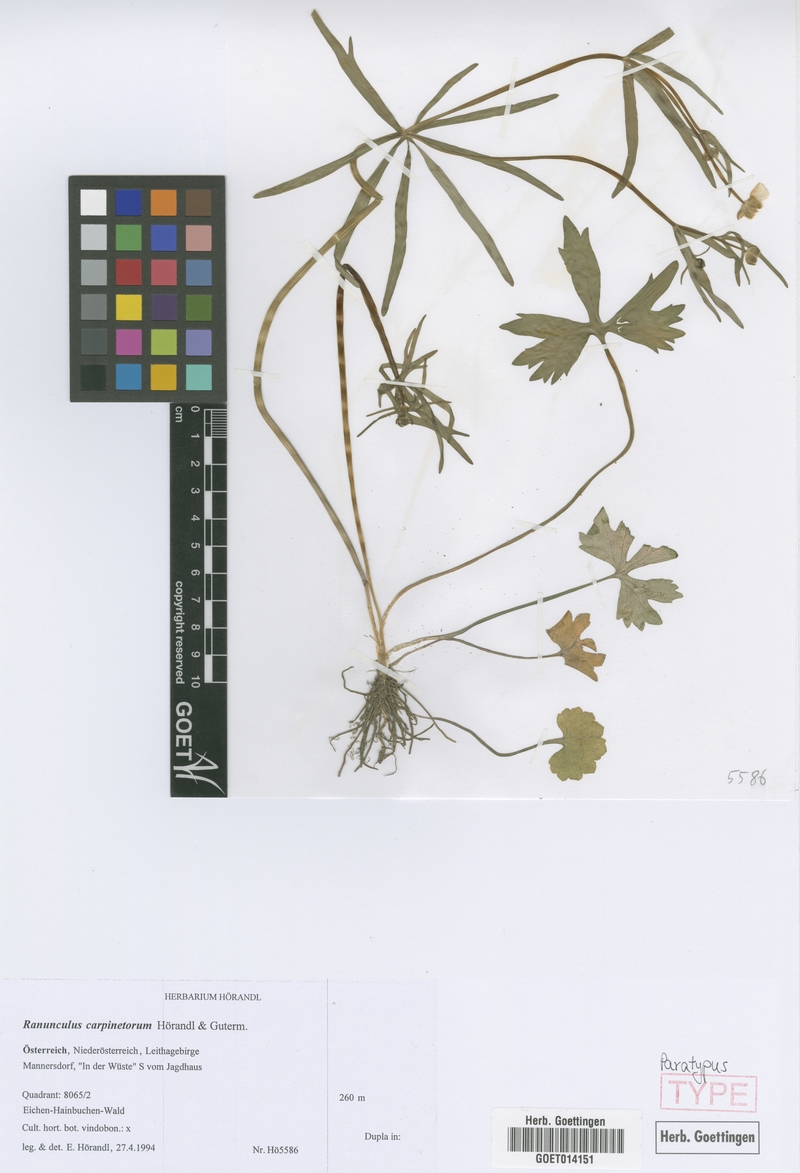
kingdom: Plantae
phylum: Tracheophyta
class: Magnoliopsida
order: Ranunculales
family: Ranunculaceae
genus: Ranunculus
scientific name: Ranunculus carpinetorum
